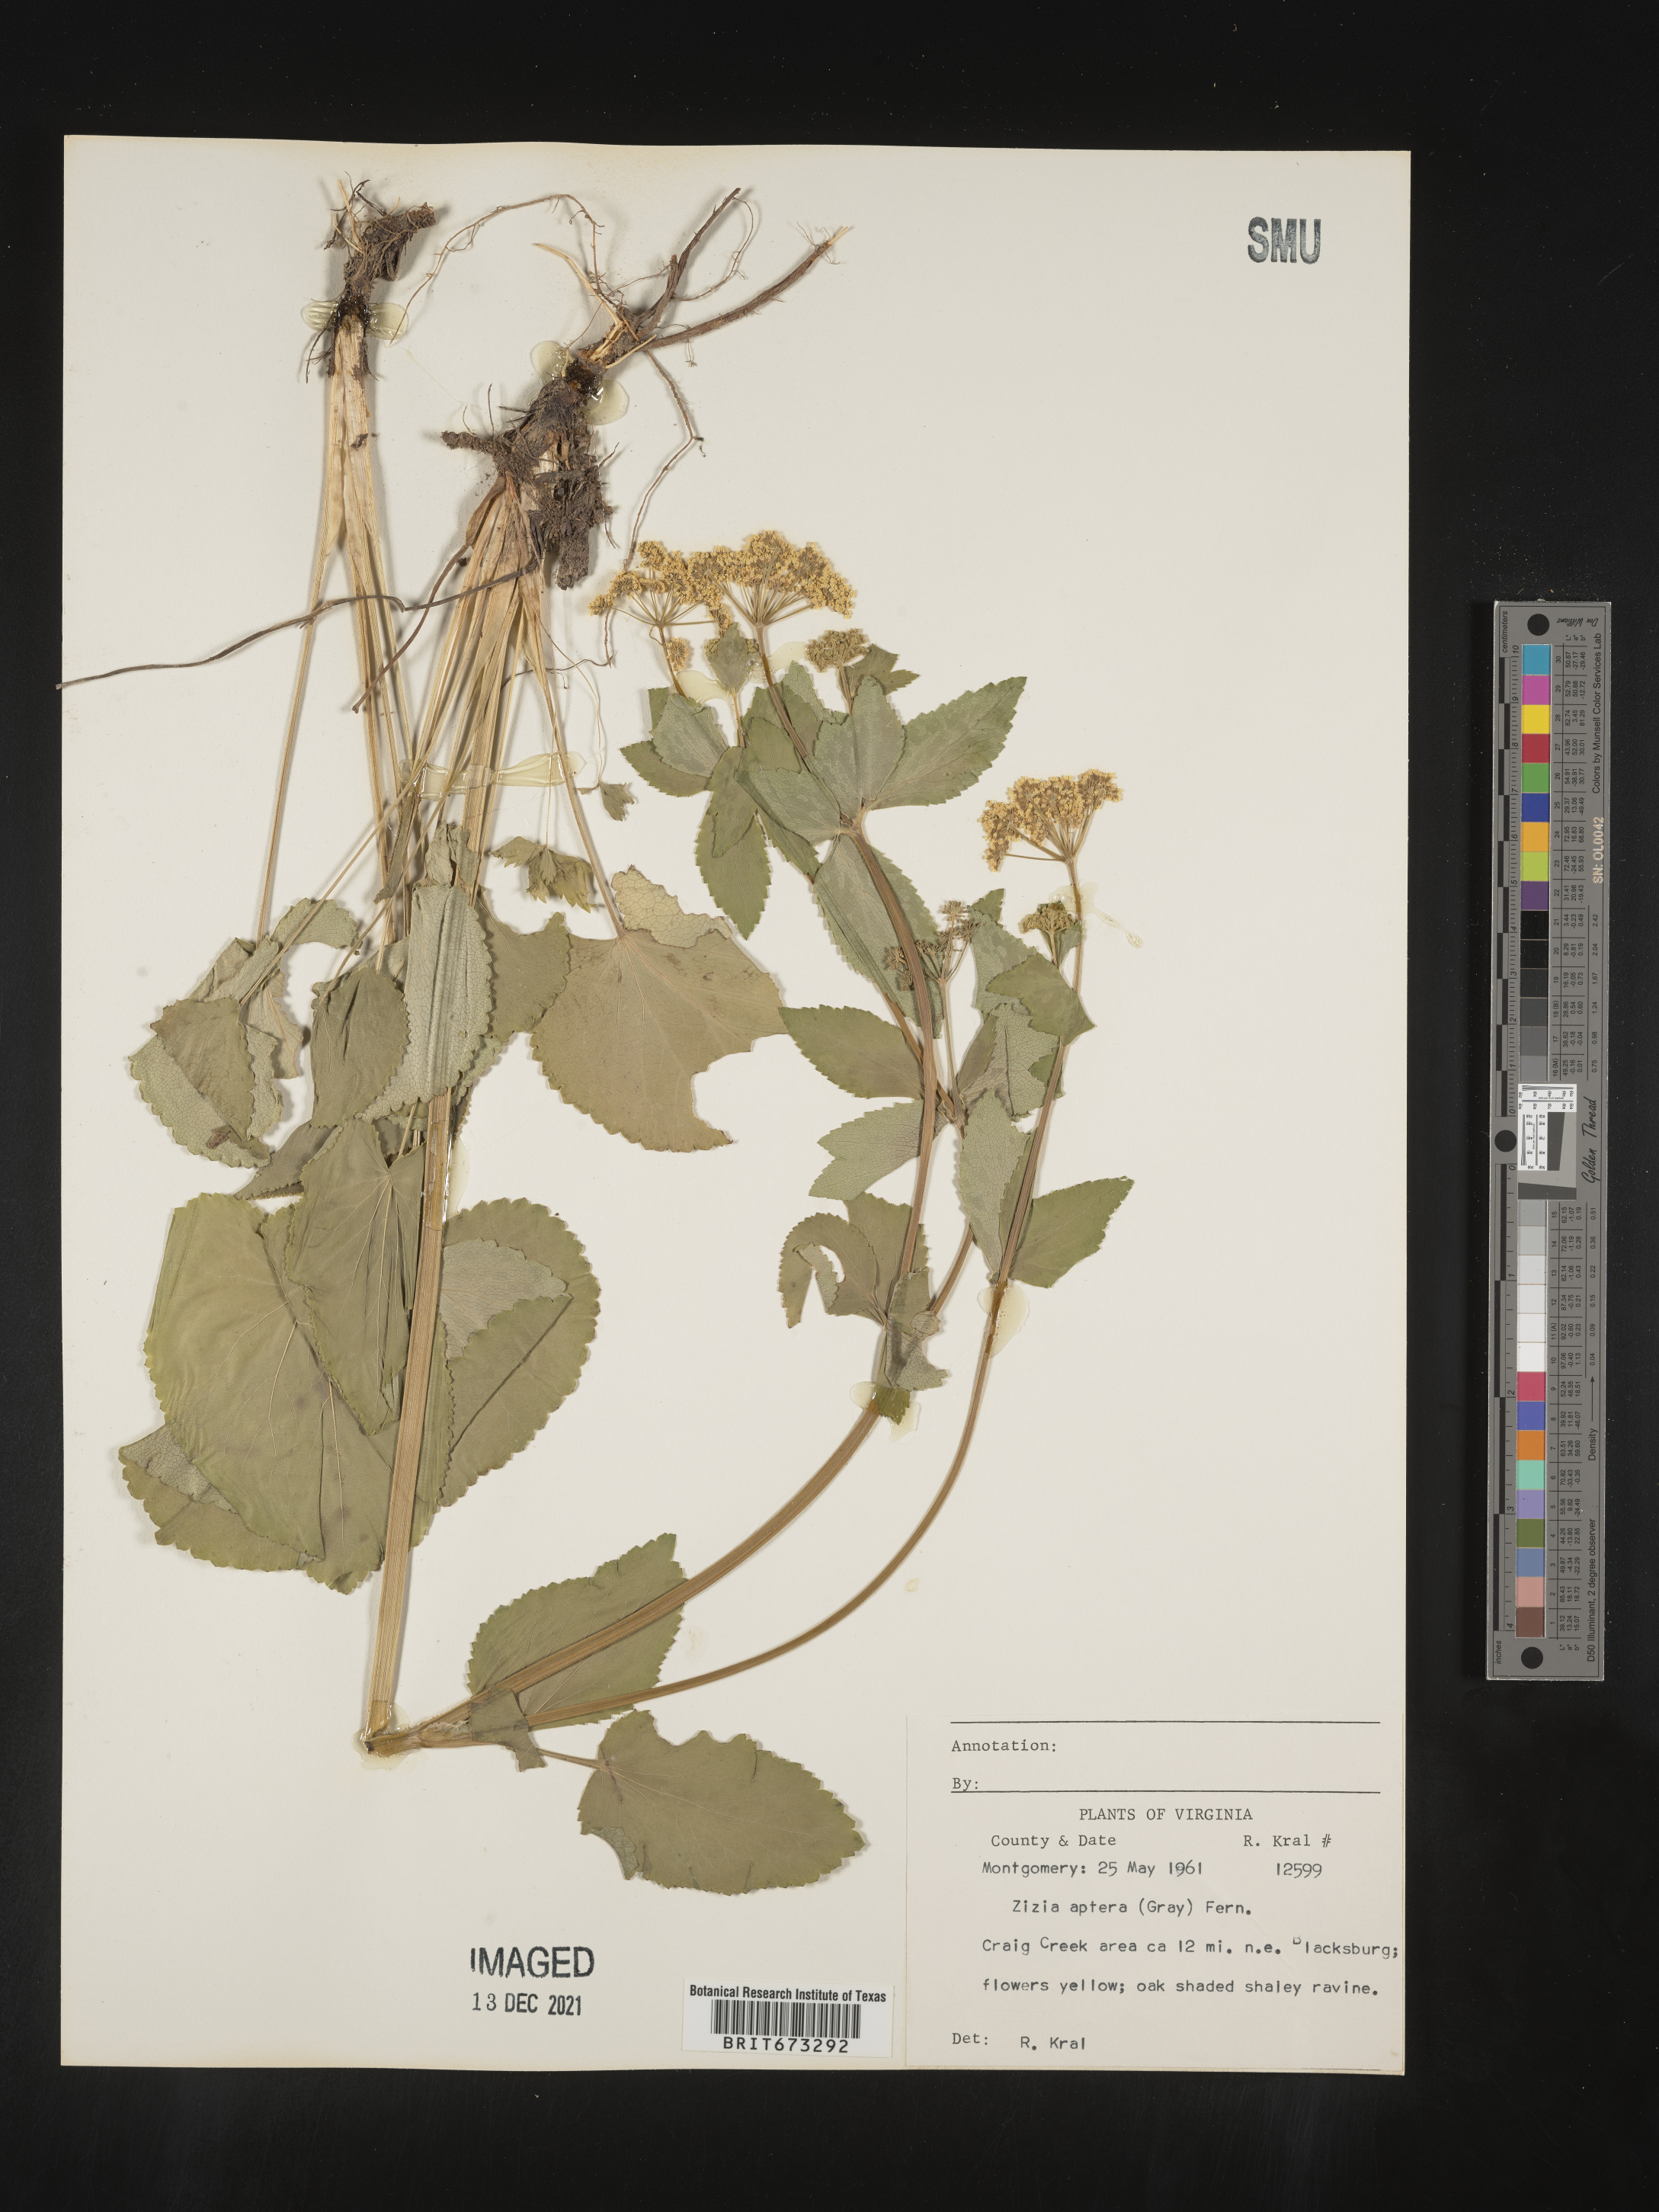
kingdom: Plantae
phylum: Tracheophyta
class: Magnoliopsida
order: Apiales
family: Apiaceae
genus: Zizia
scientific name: Zizia aptera
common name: Heart-leaved alexanders
